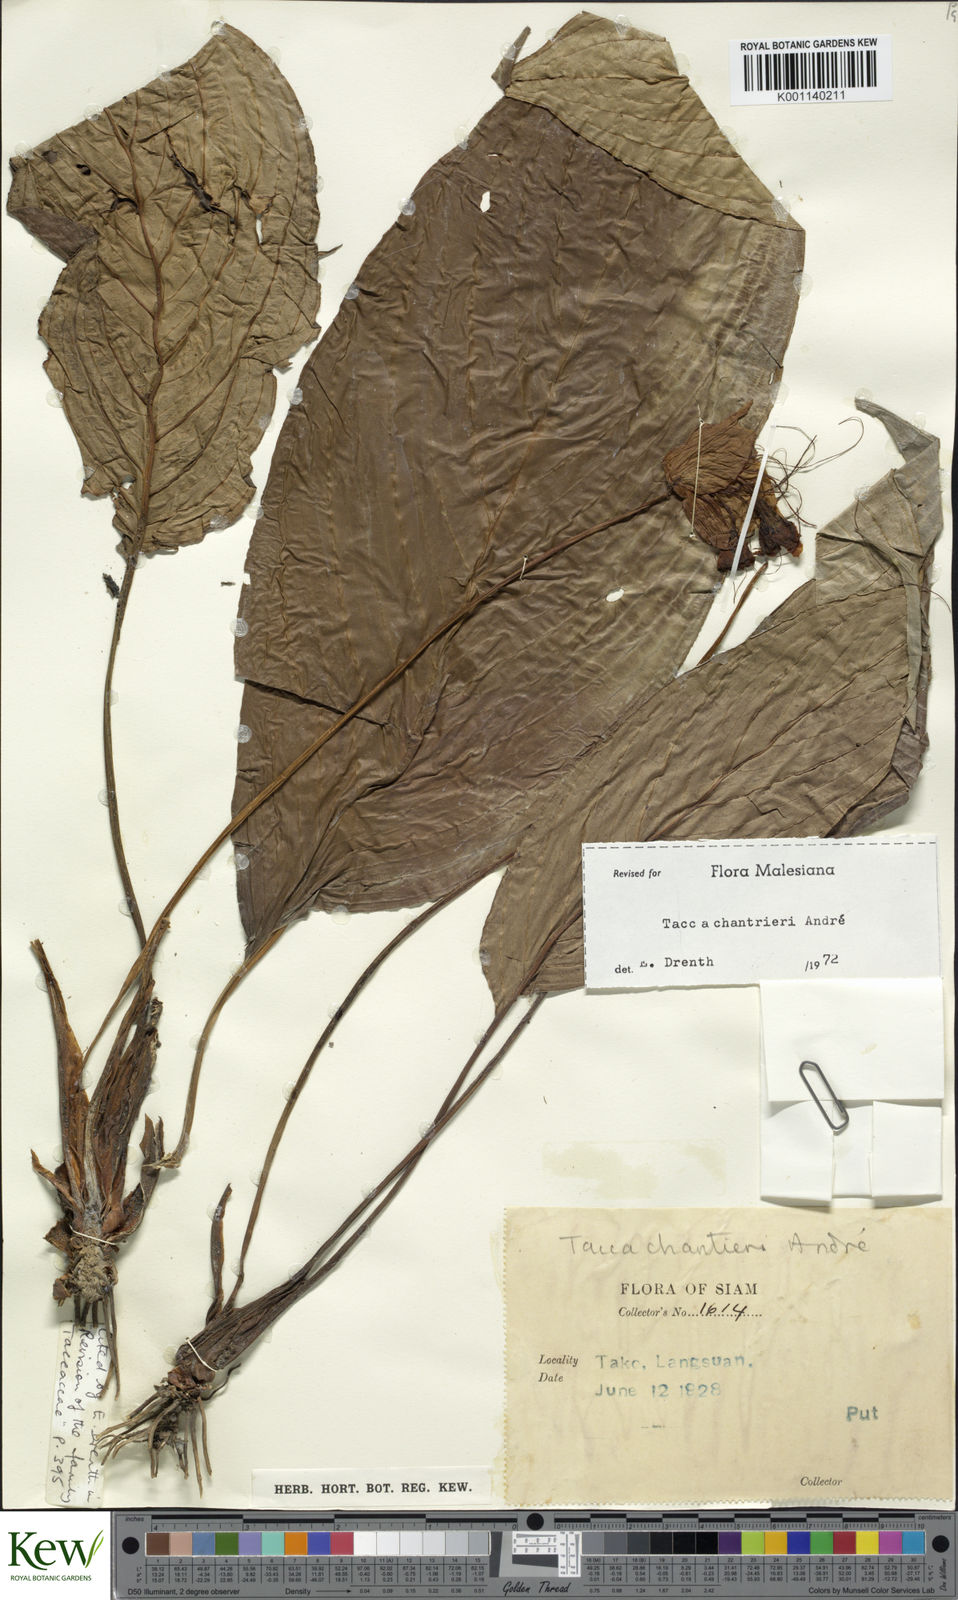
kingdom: Plantae
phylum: Tracheophyta
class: Liliopsida
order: Dioscoreales
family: Dioscoreaceae
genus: Tacca
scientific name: Tacca
